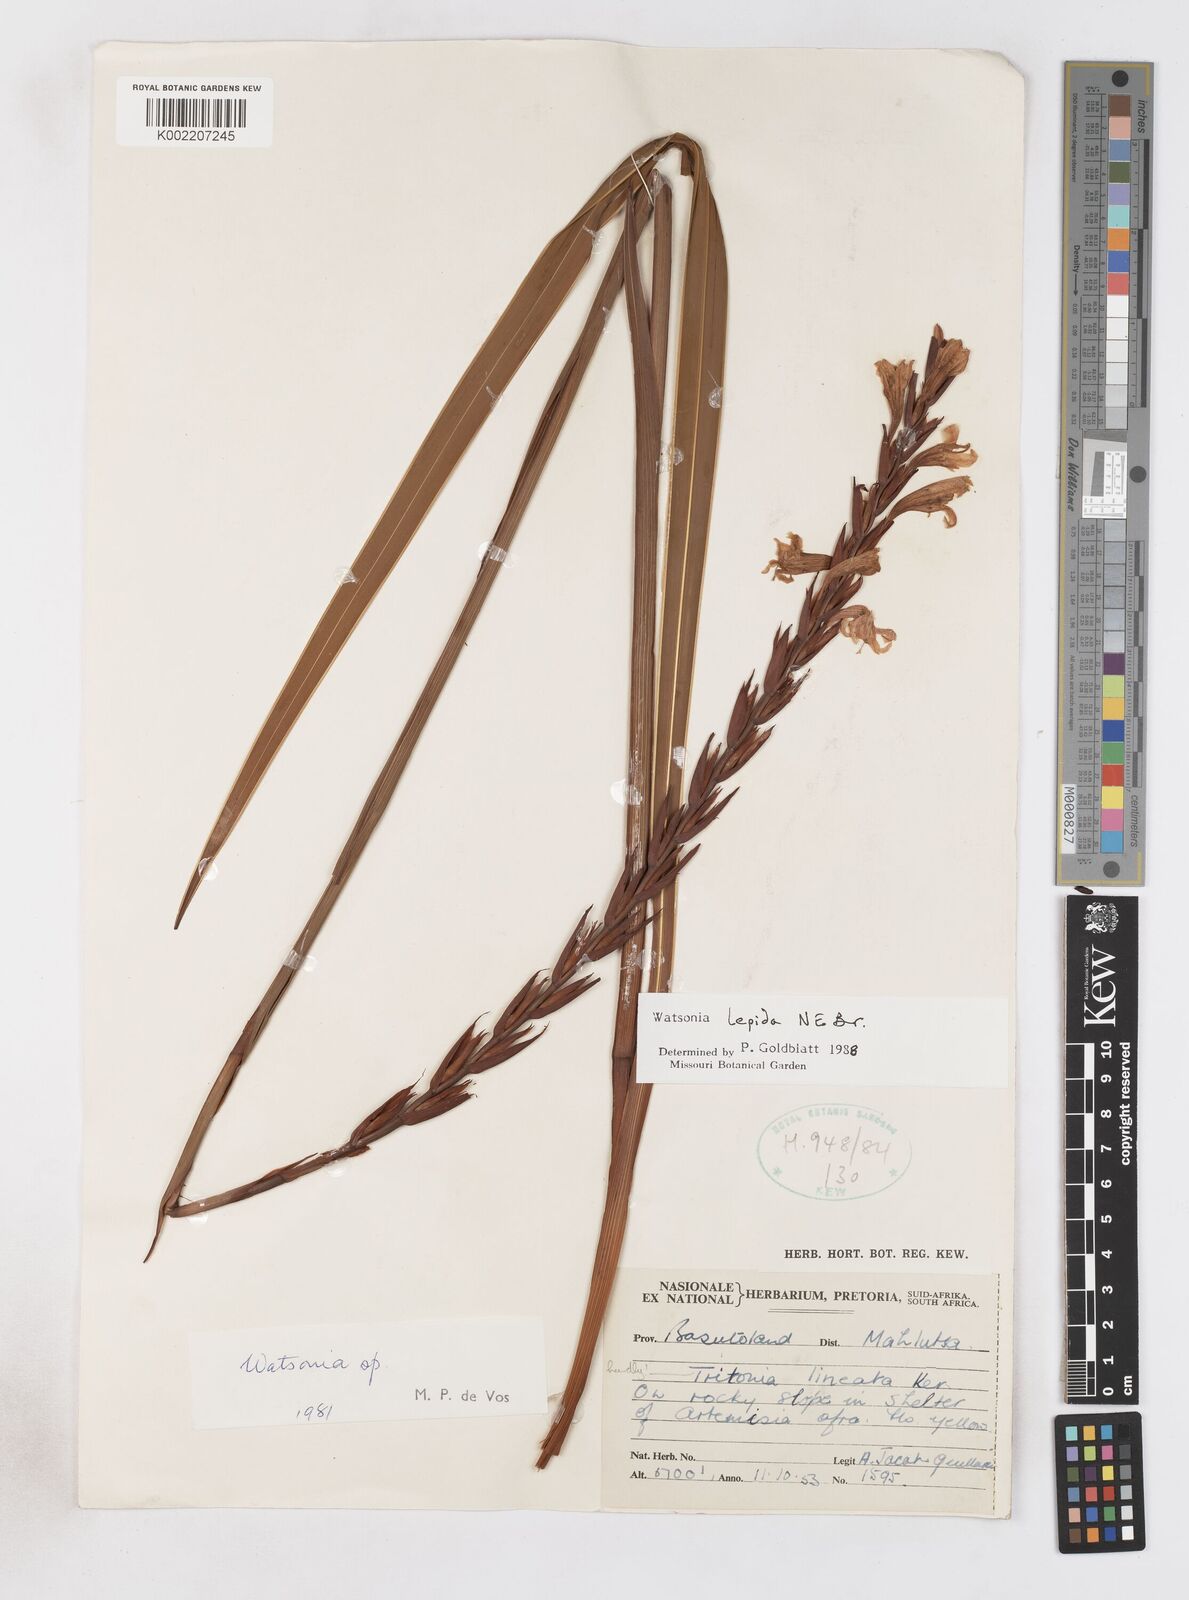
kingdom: Plantae
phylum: Tracheophyta
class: Liliopsida
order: Asparagales
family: Iridaceae
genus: Watsonia
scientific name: Watsonia lepida
